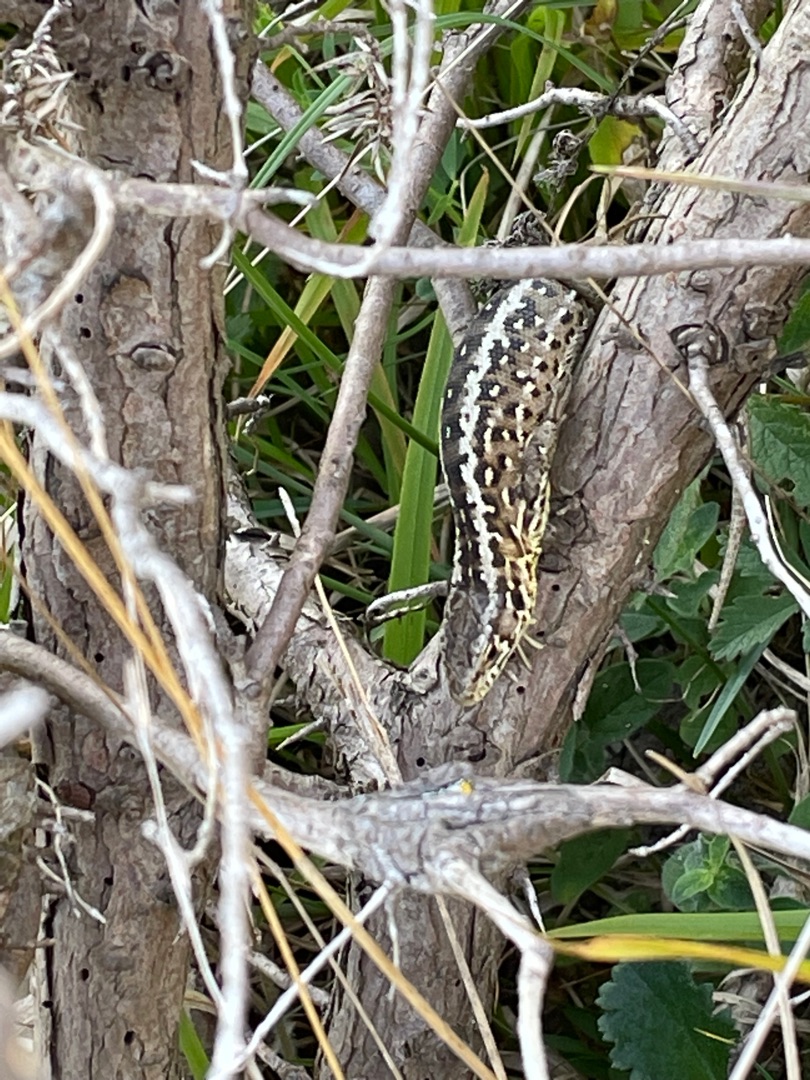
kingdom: Animalia
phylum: Chordata
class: Squamata
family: Lacertidae
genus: Lacerta
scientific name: Lacerta agilis
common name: Markfirben
